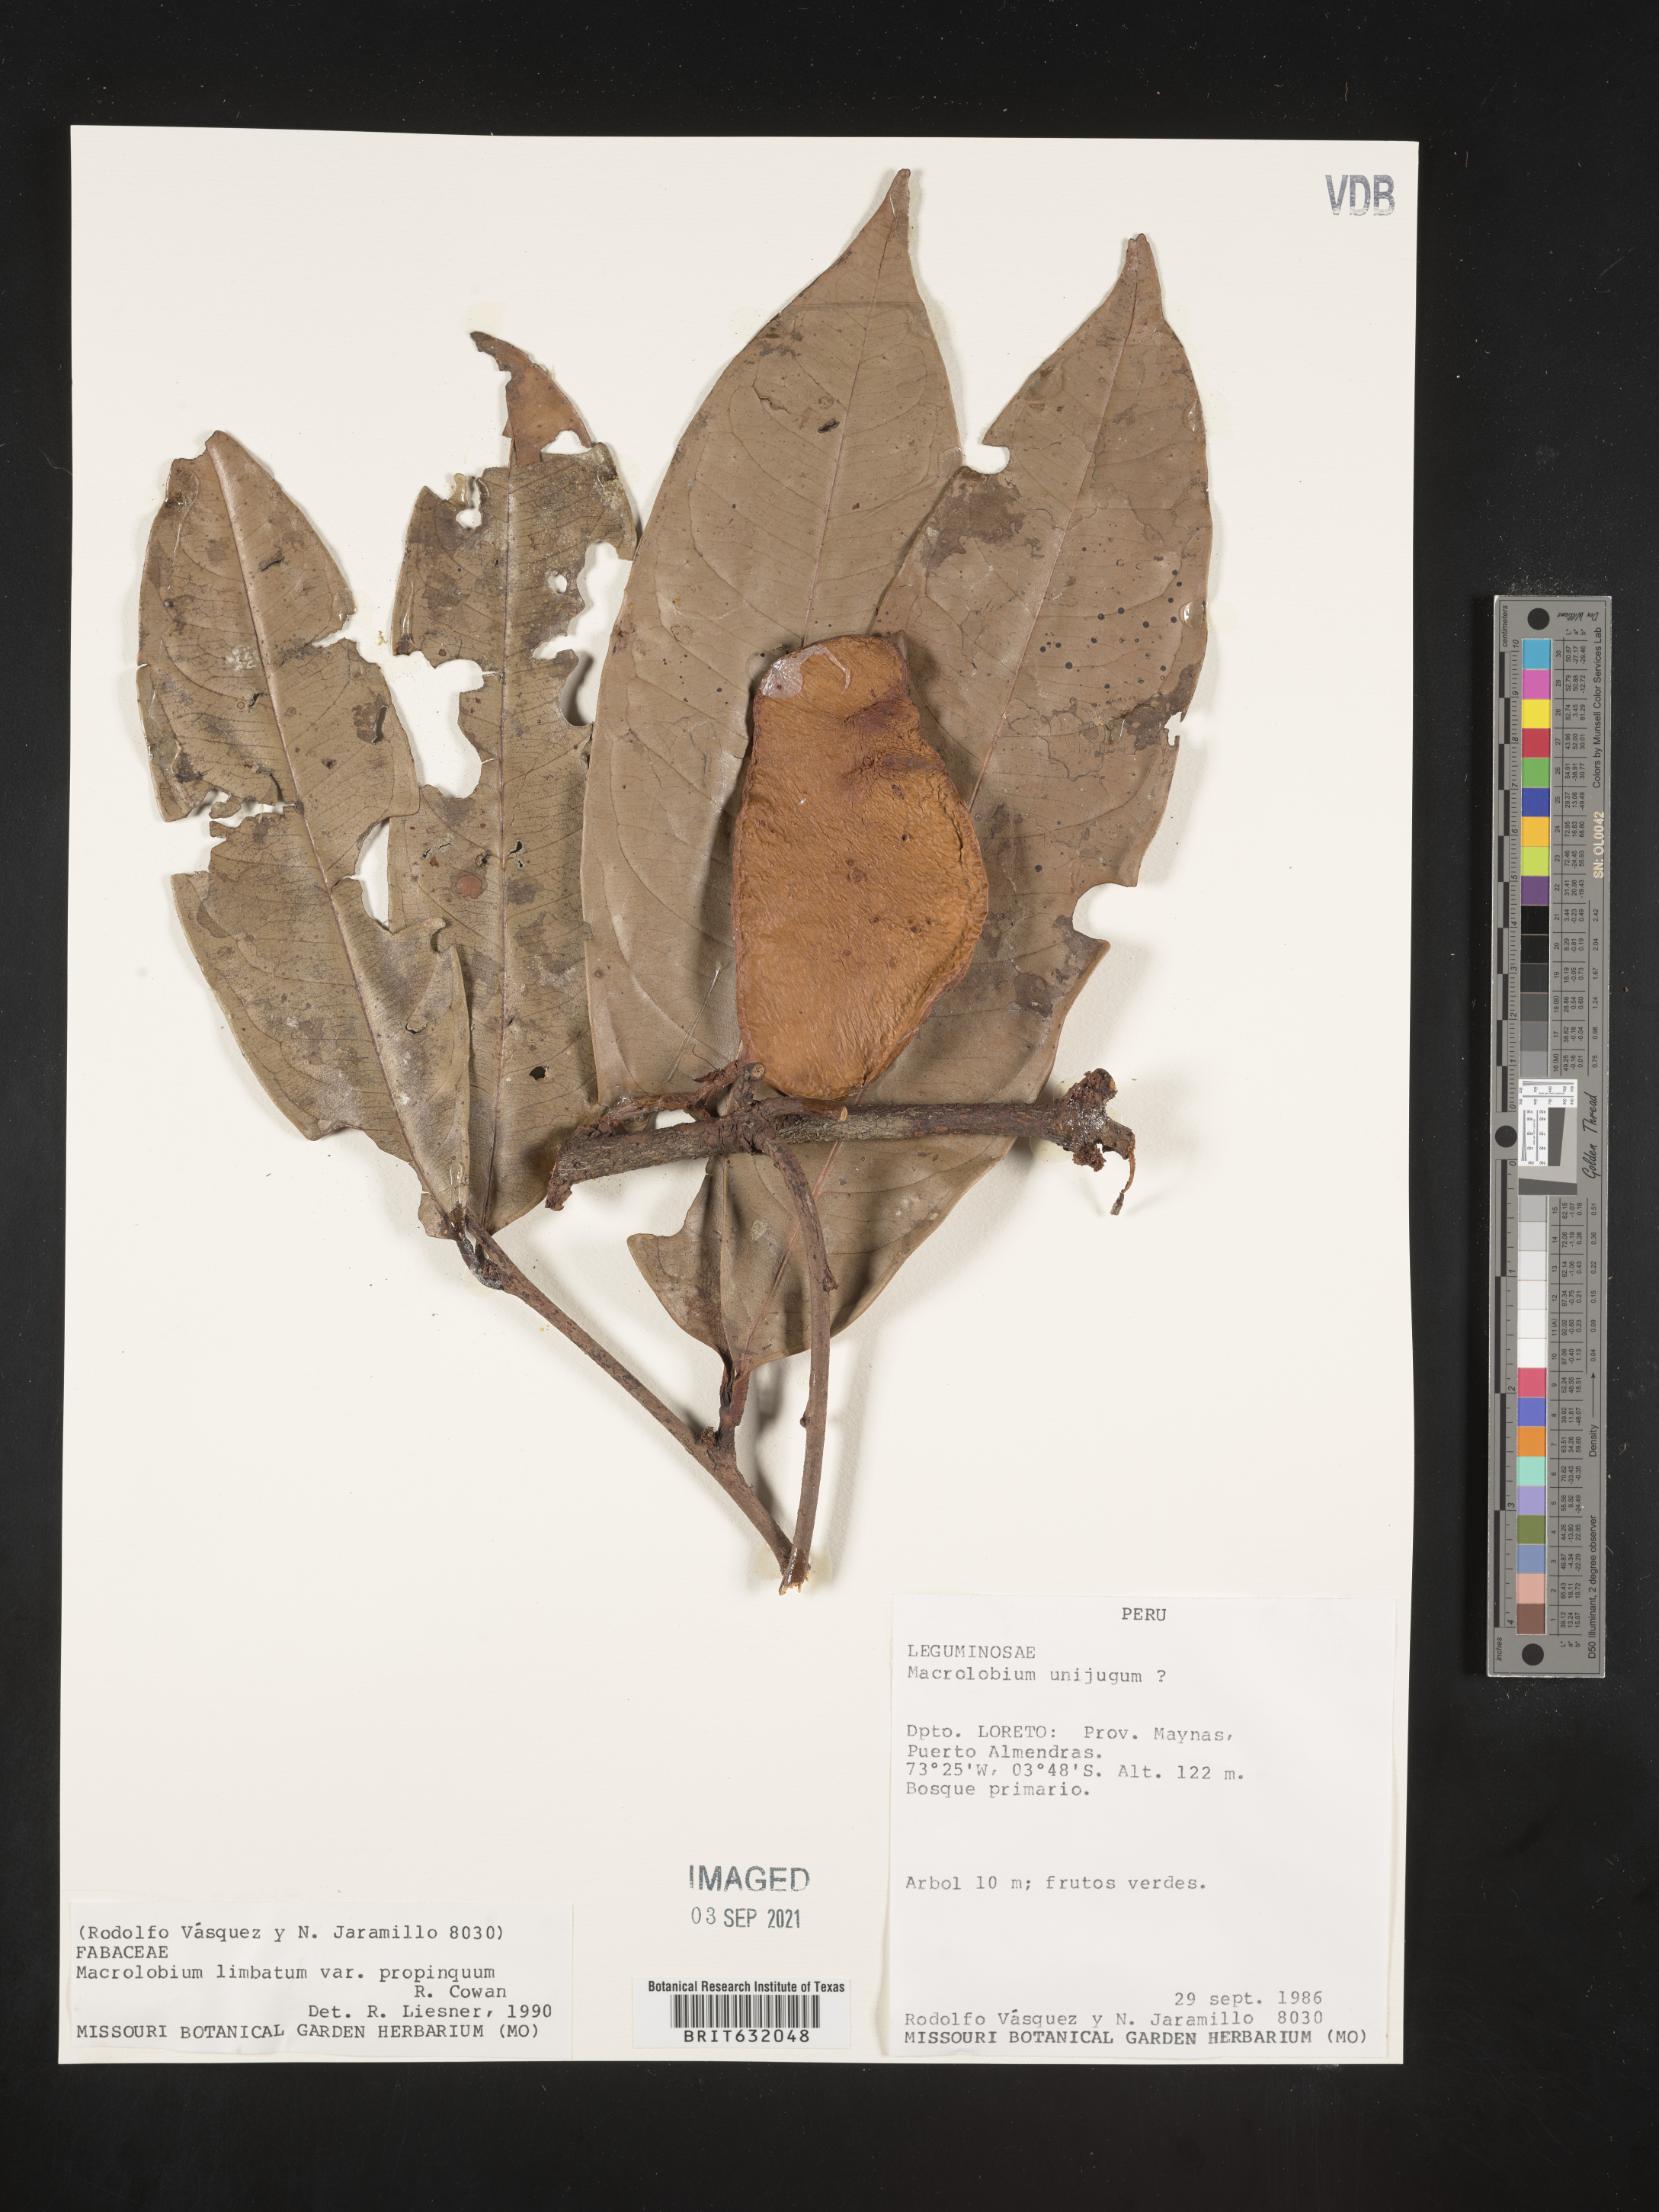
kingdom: Plantae
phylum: Tracheophyta
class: Magnoliopsida
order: Fabales
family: Fabaceae
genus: Macrolobium
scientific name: Macrolobium
